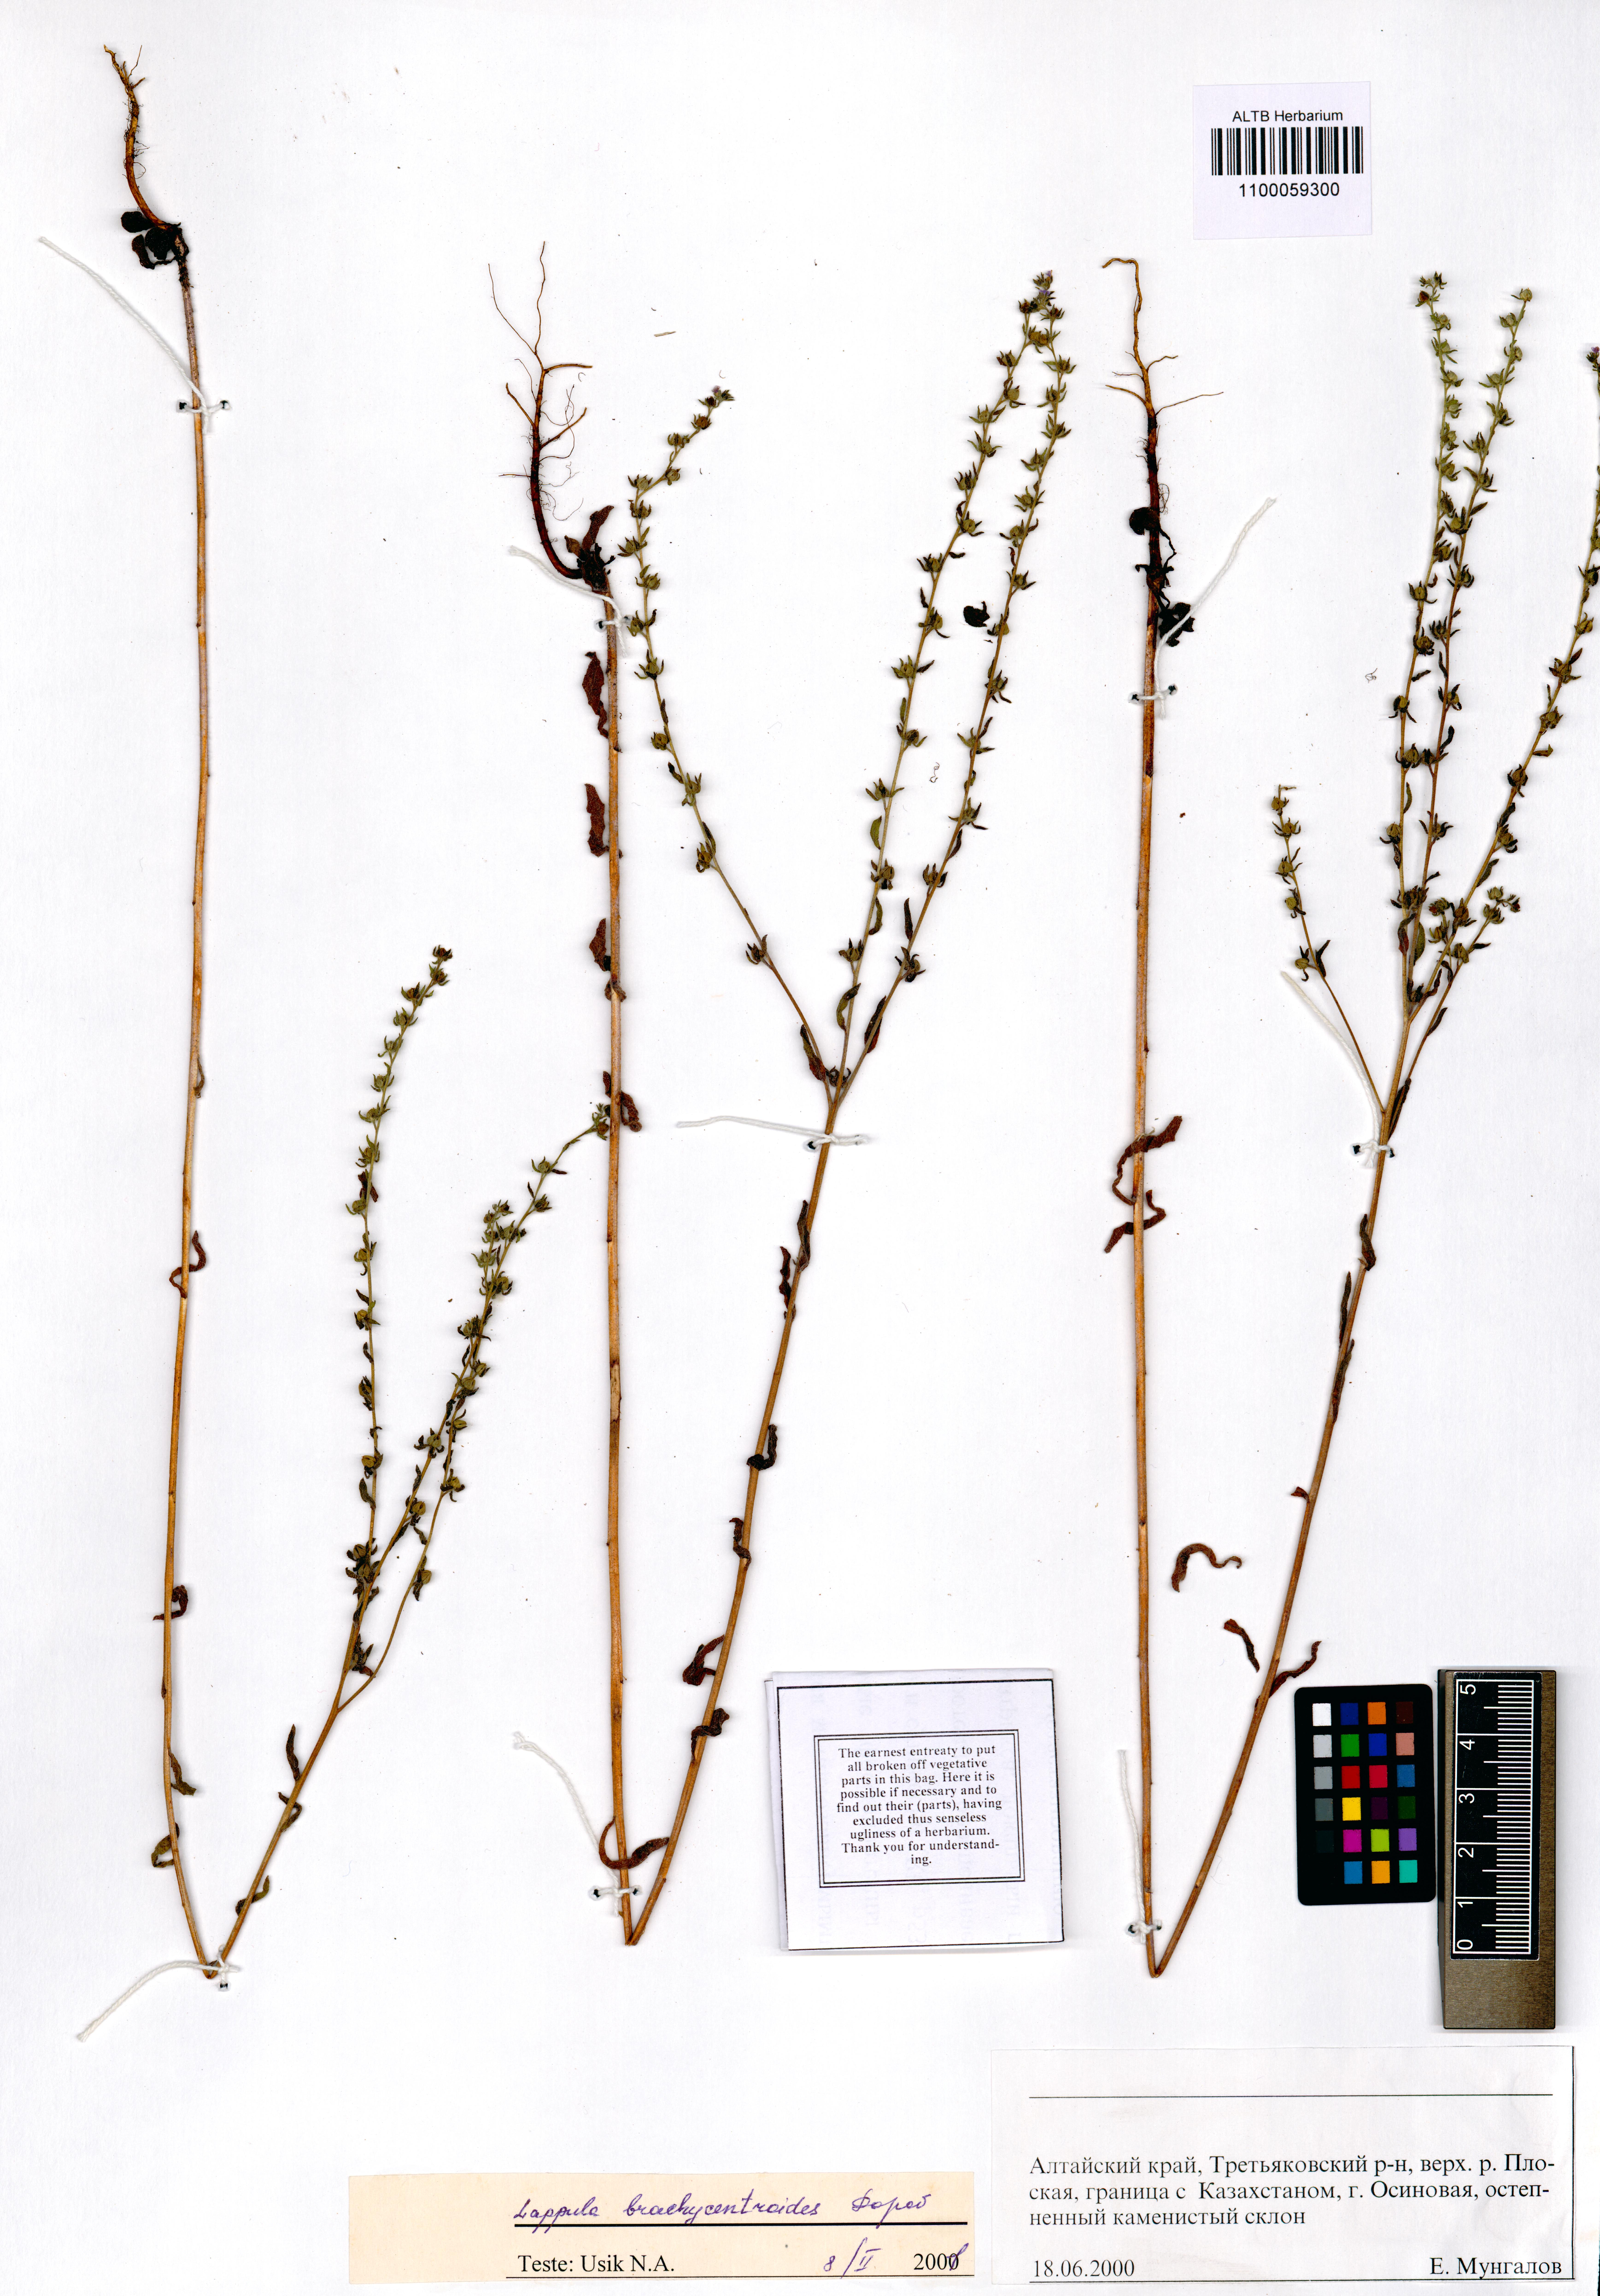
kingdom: Plantae
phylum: Tracheophyta
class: Magnoliopsida
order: Boraginales
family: Boraginaceae
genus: Lappula
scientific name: Lappula brachycentroides
